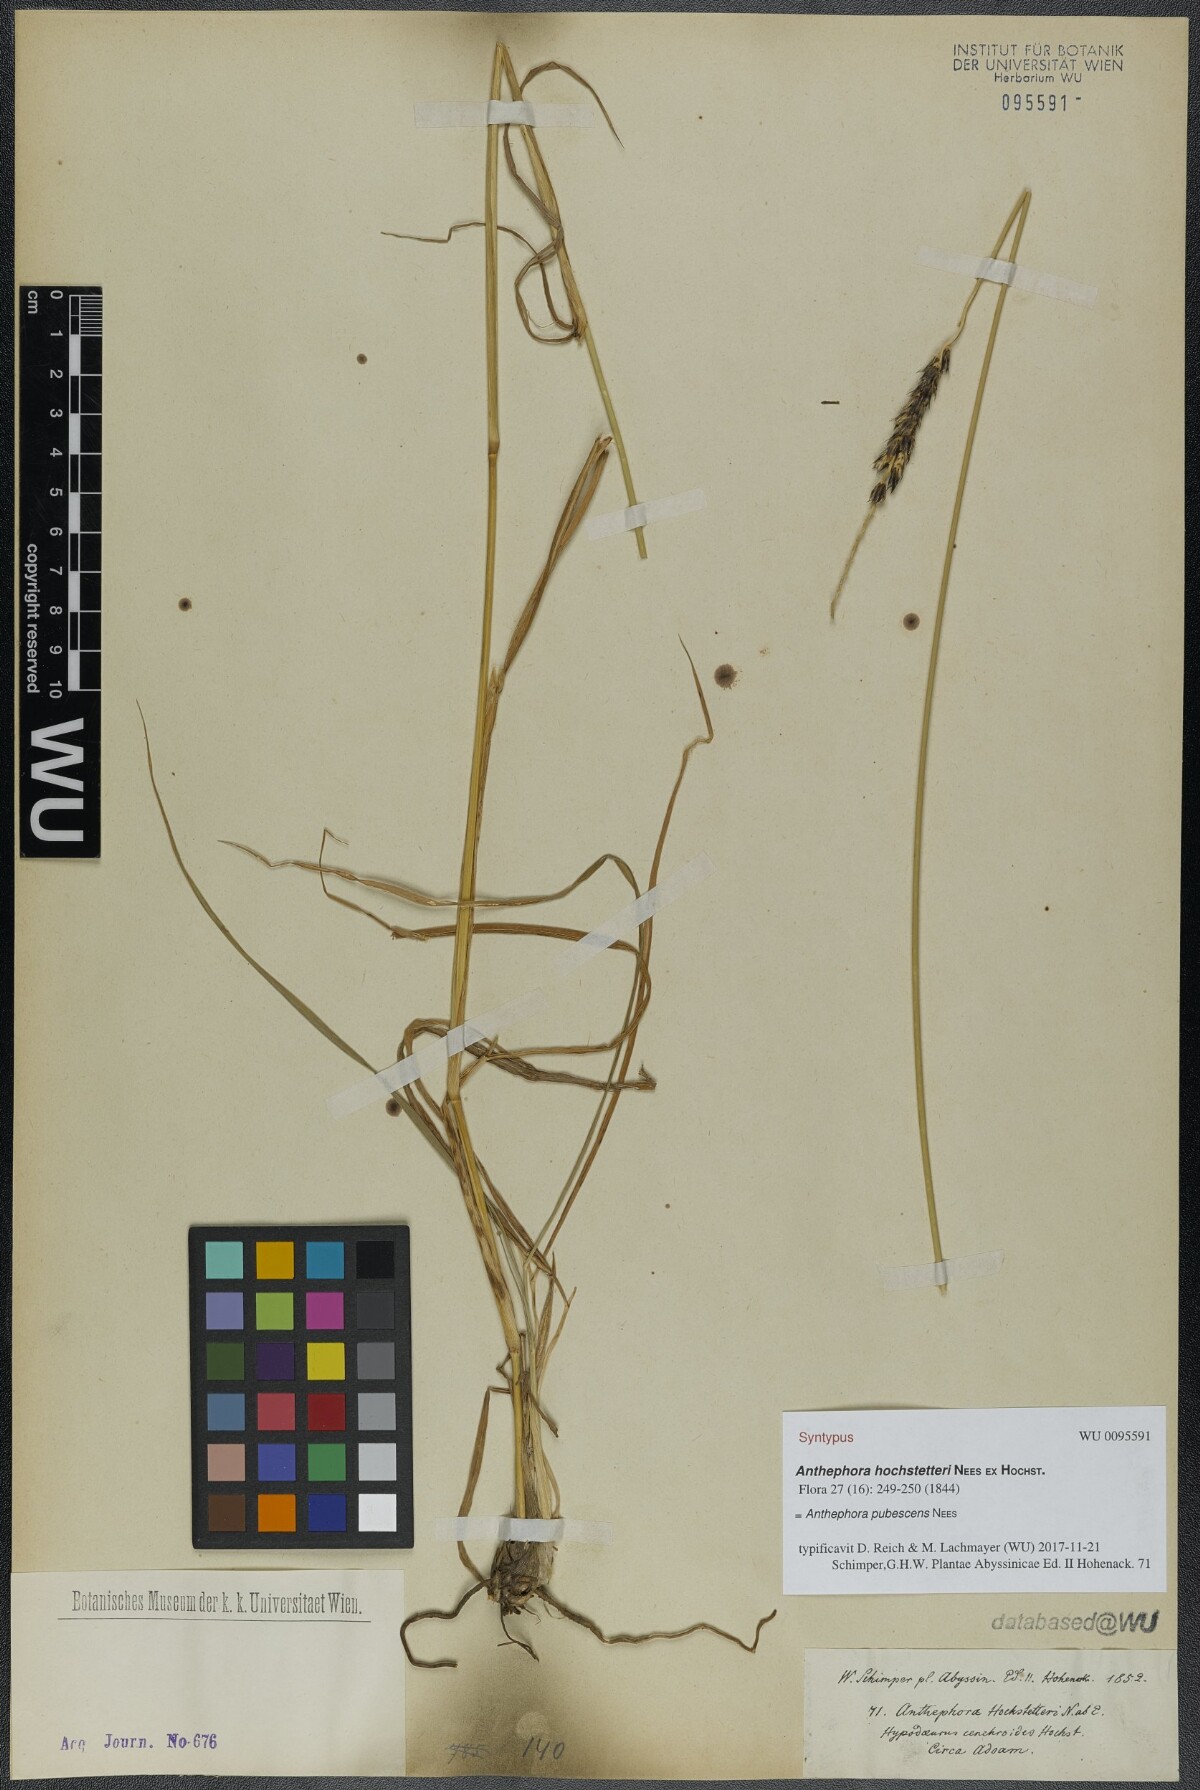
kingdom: Plantae
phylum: Tracheophyta
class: Liliopsida
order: Poales
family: Poaceae
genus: Anthephora
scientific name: Anthephora pubescens
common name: Wool grass
